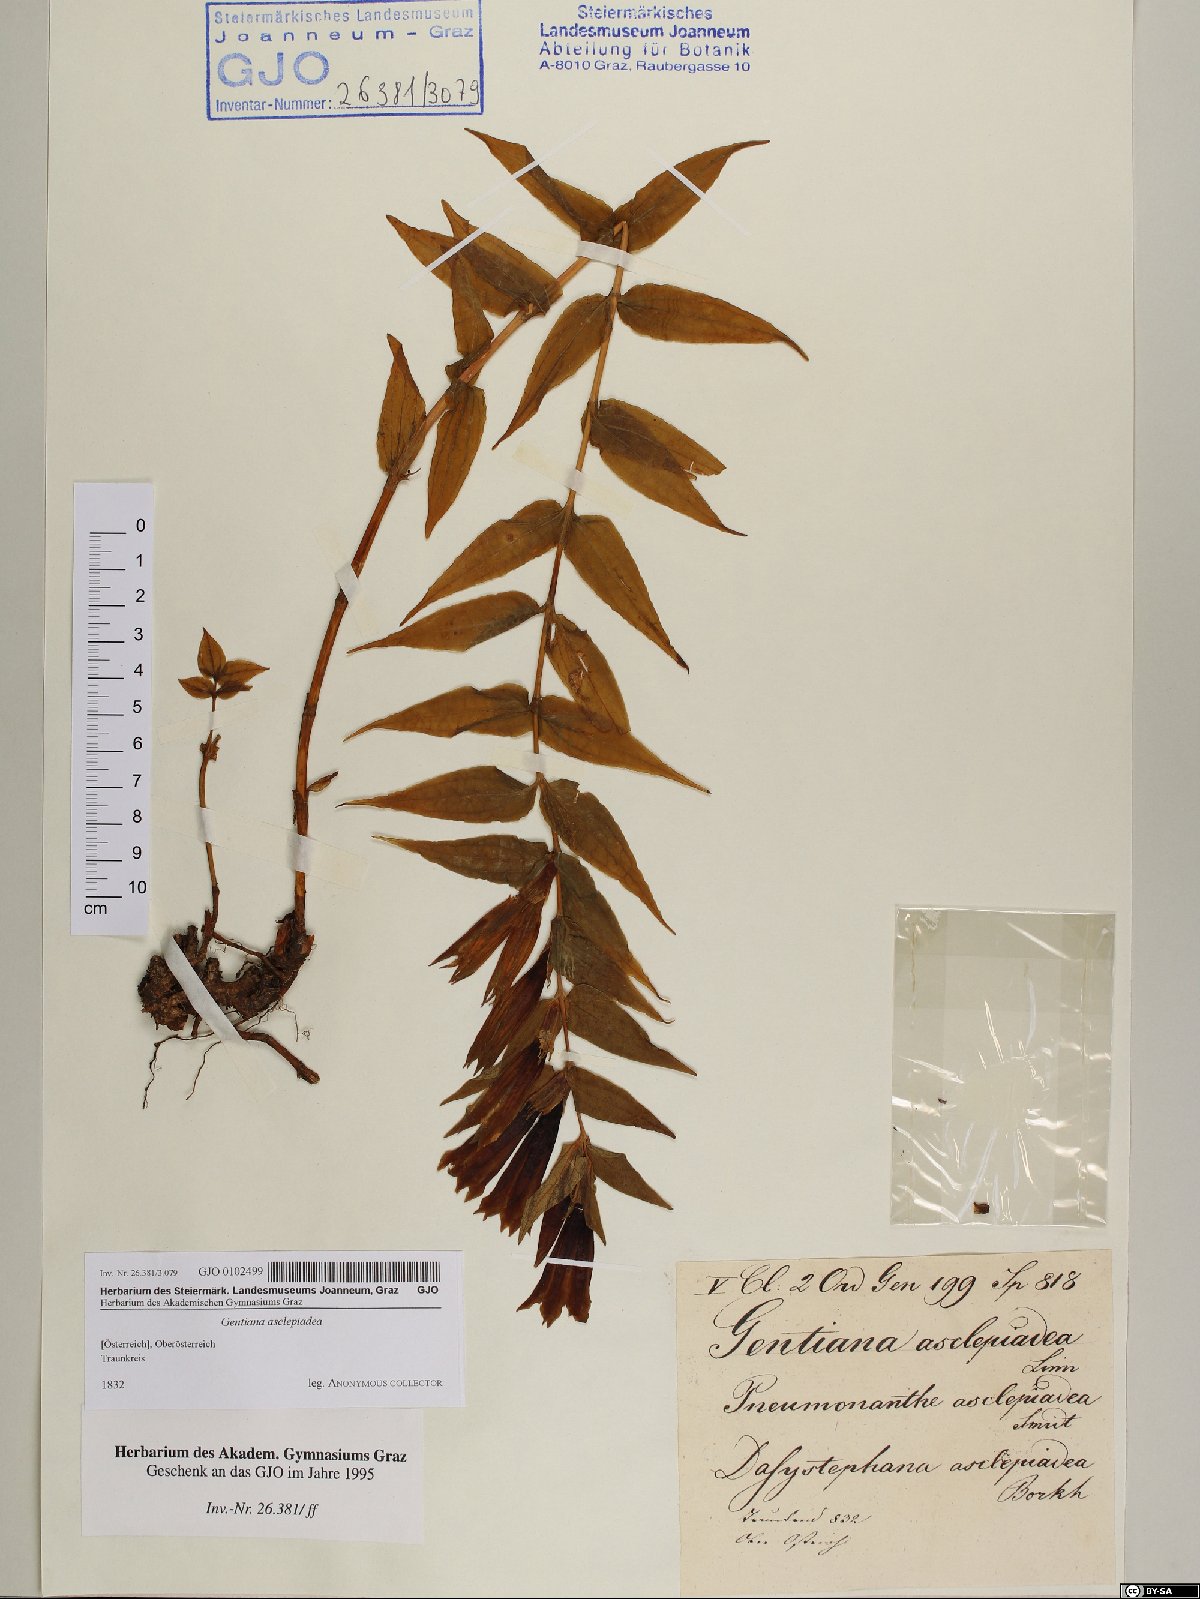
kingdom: Plantae
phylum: Tracheophyta
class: Magnoliopsida
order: Gentianales
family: Gentianaceae
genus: Gentiana
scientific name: Gentiana asclepiadea
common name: Willow gentian
